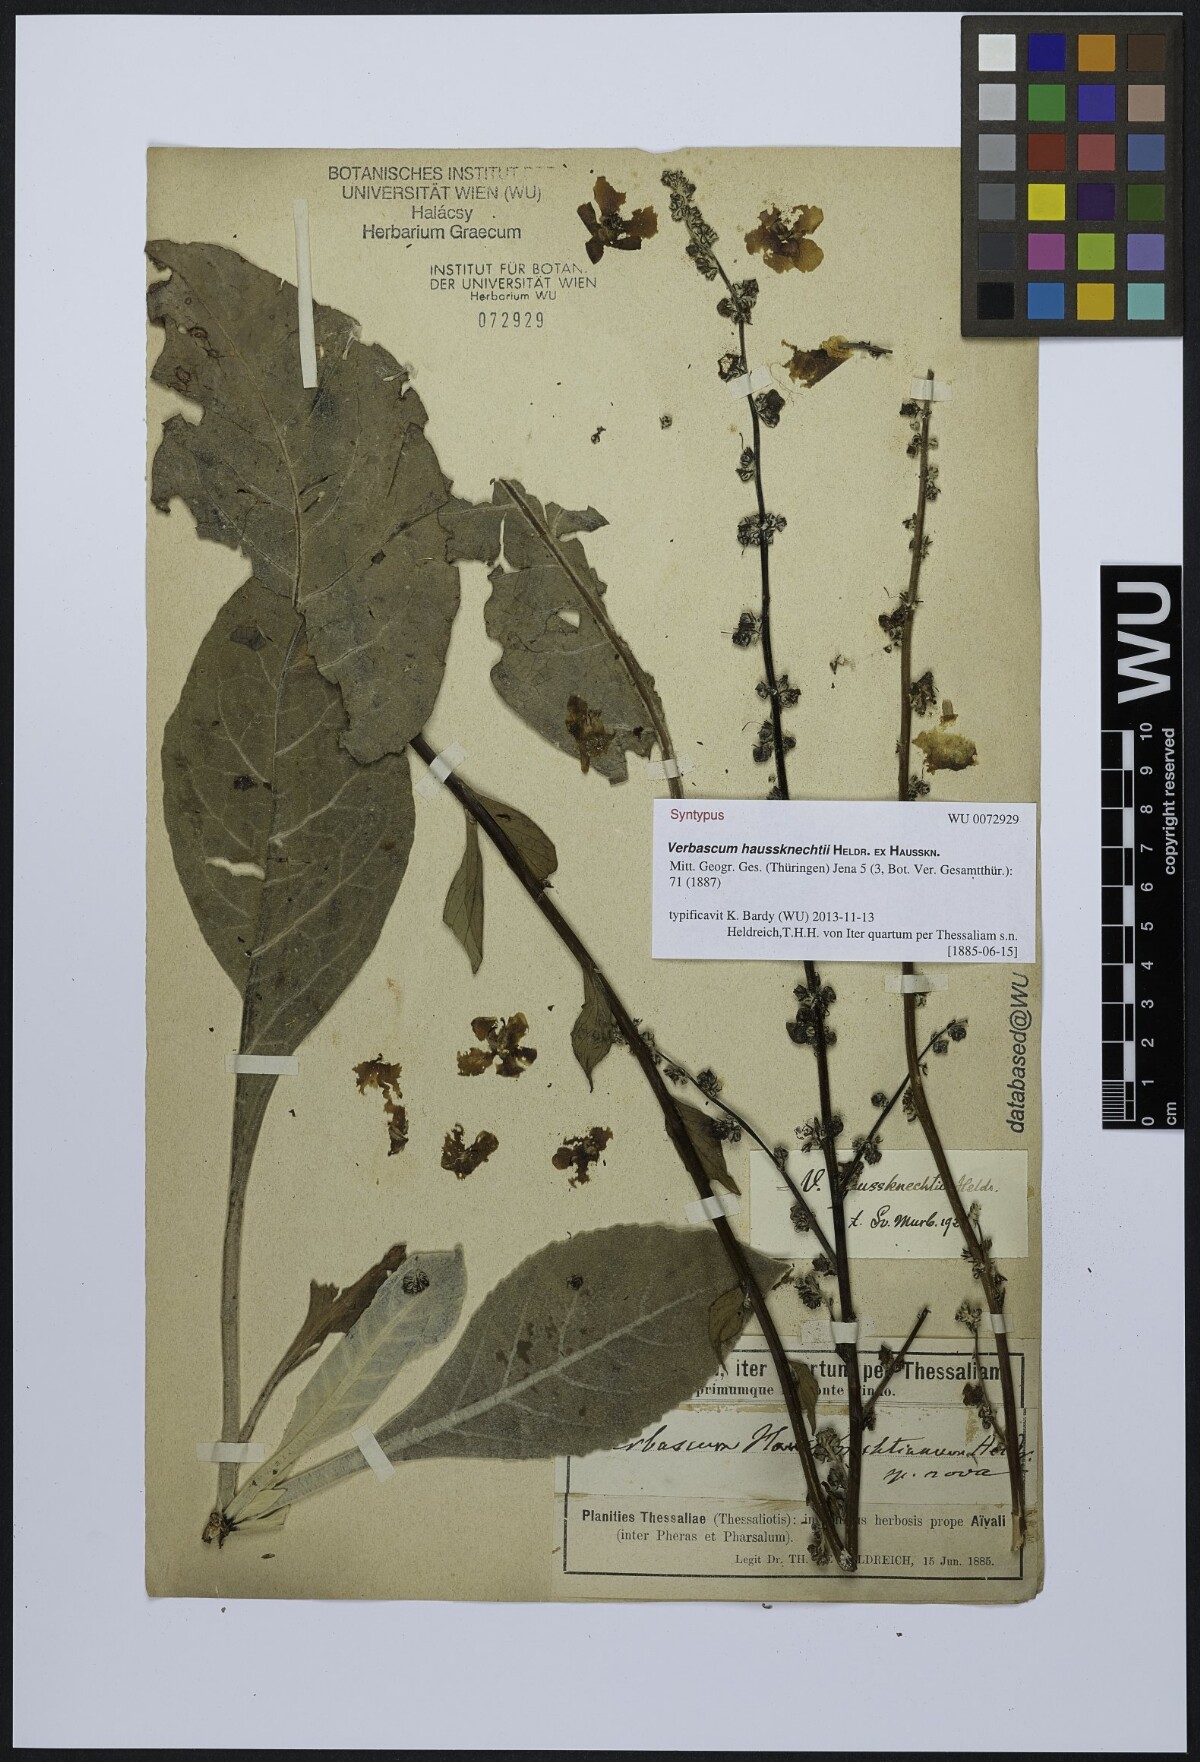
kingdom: Plantae
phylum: Tracheophyta
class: Magnoliopsida
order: Lamiales
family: Scrophulariaceae
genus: Verbascum
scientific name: Verbascum haussknechtii
